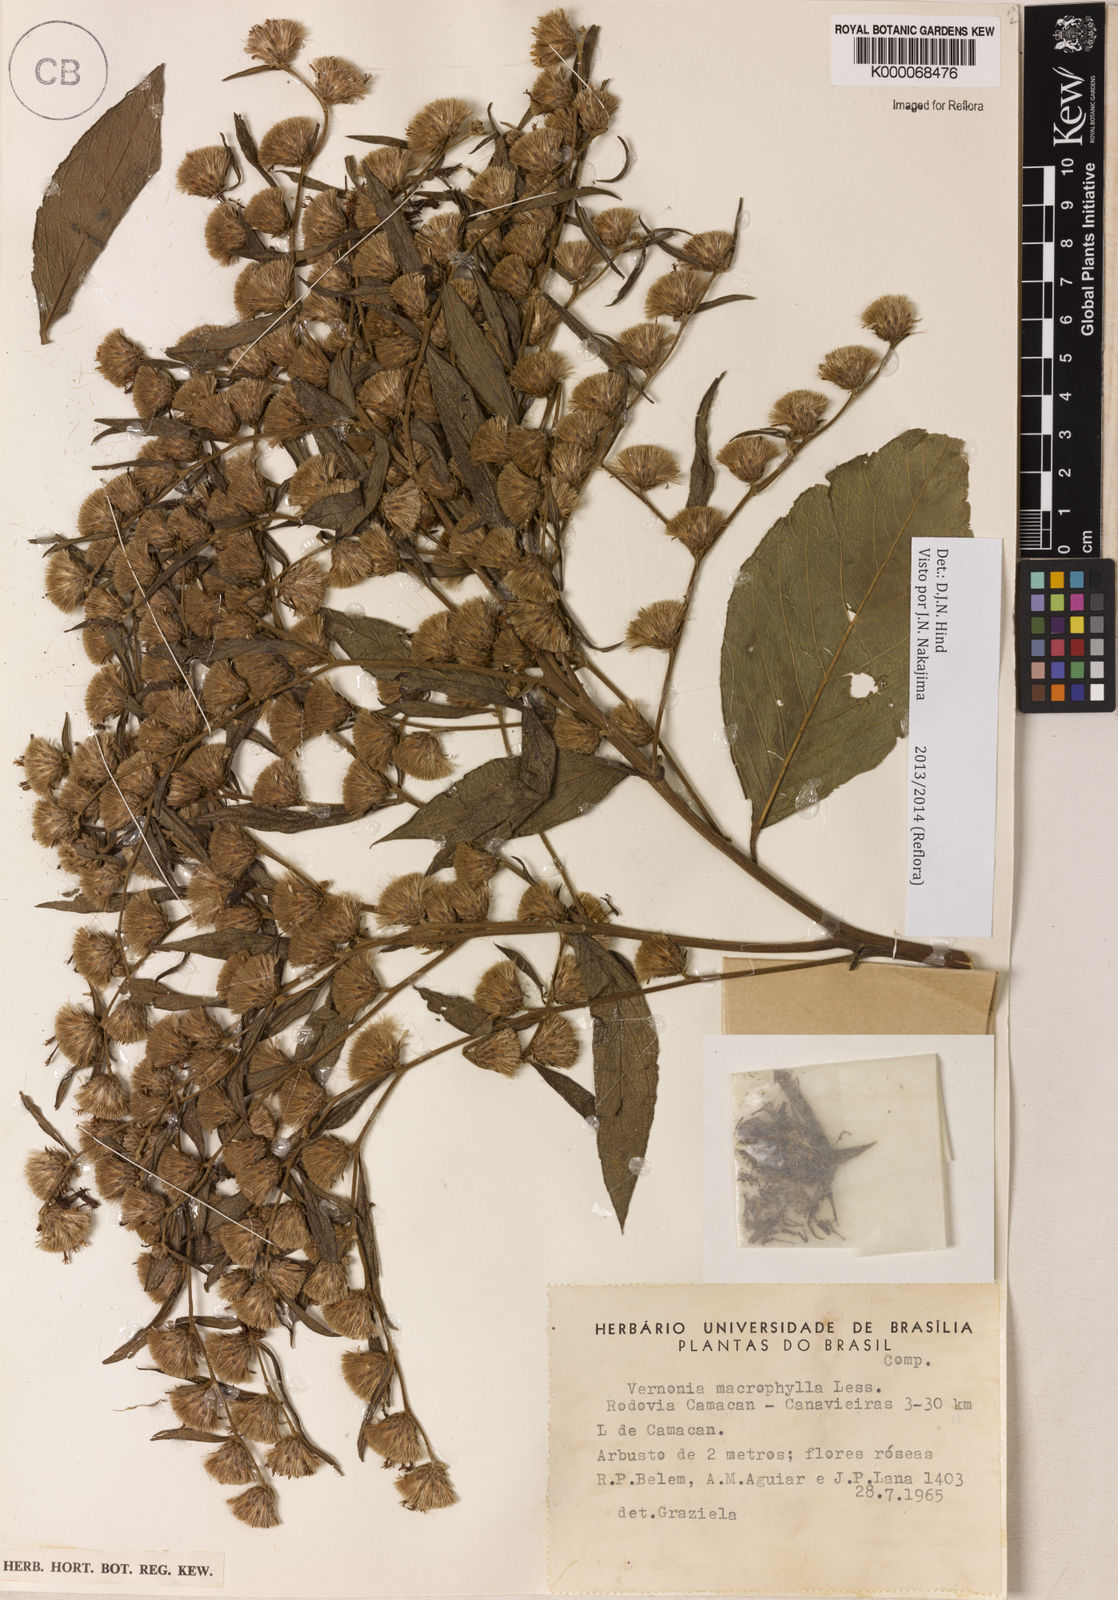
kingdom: Plantae
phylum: Tracheophyta
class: Magnoliopsida
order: Asterales
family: Asteraceae
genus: Lessingianthus
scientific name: Lessingianthus macrophyllus
